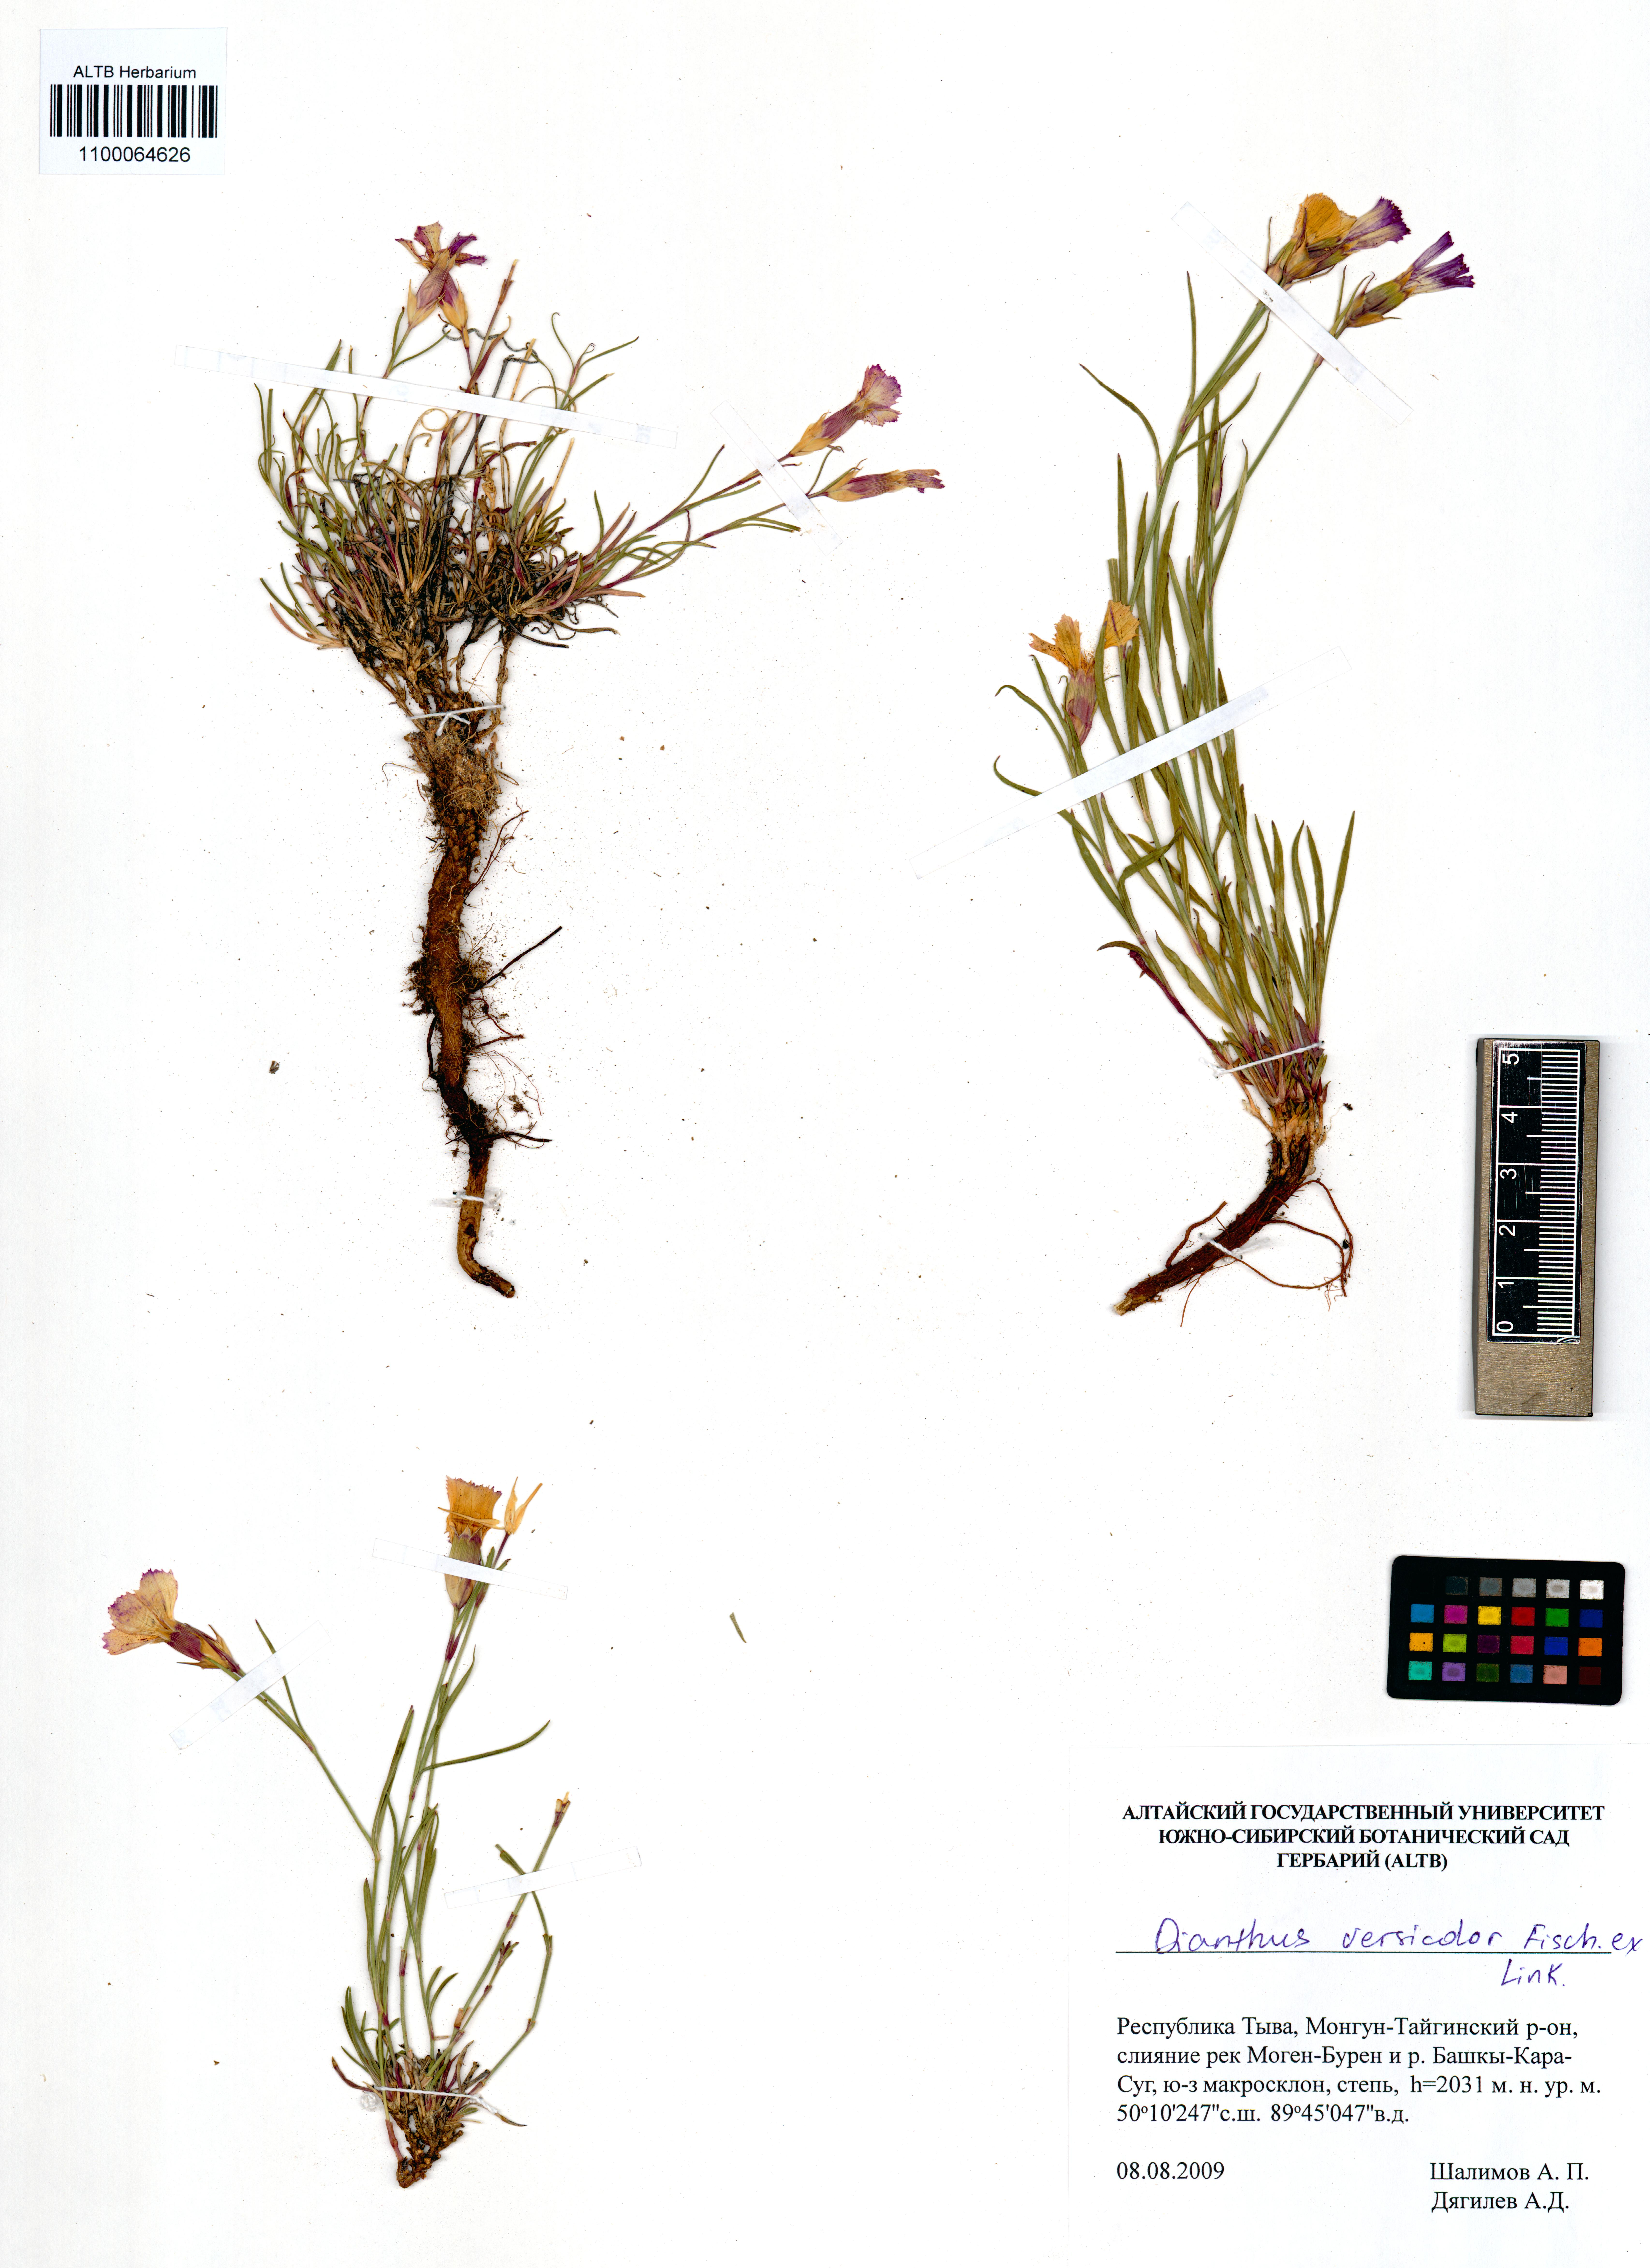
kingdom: Plantae
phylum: Tracheophyta
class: Magnoliopsida
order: Caryophyllales
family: Caryophyllaceae
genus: Dianthus
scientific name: Dianthus chinensis
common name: Rainbow pink
